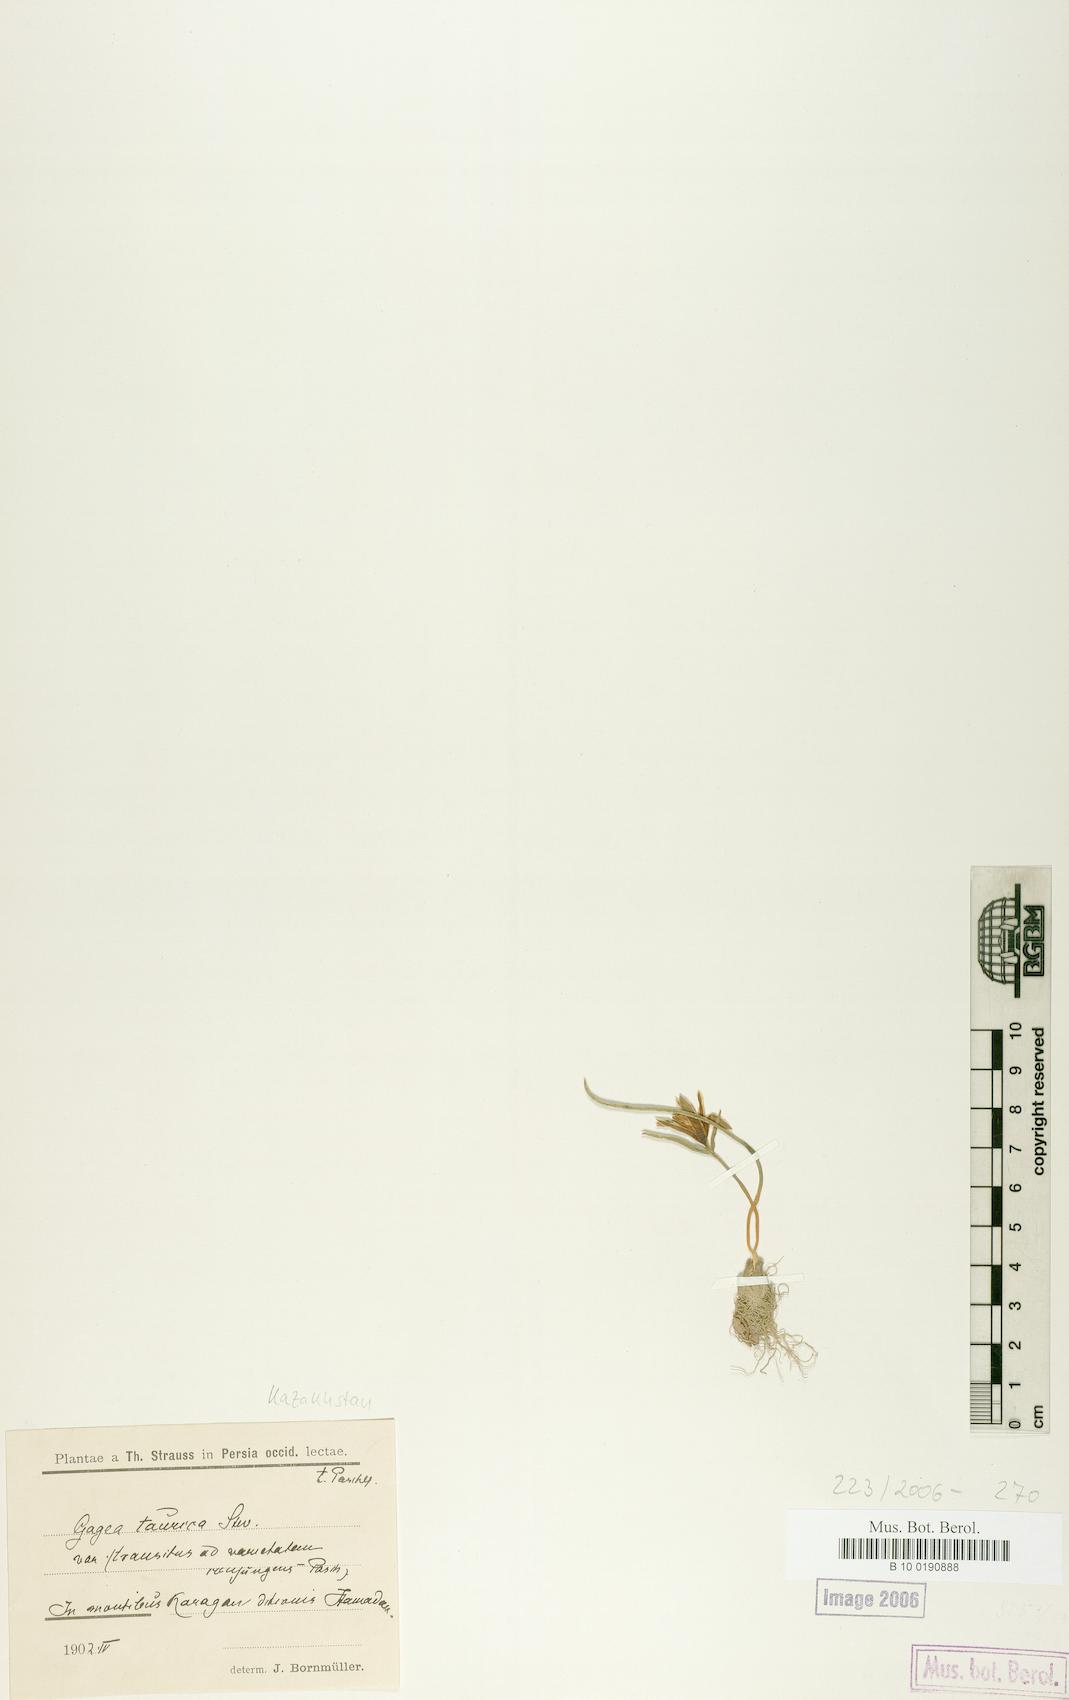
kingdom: Plantae
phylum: Tracheophyta
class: Liliopsida
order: Liliales
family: Liliaceae
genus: Gagea
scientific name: Gagea taurica
